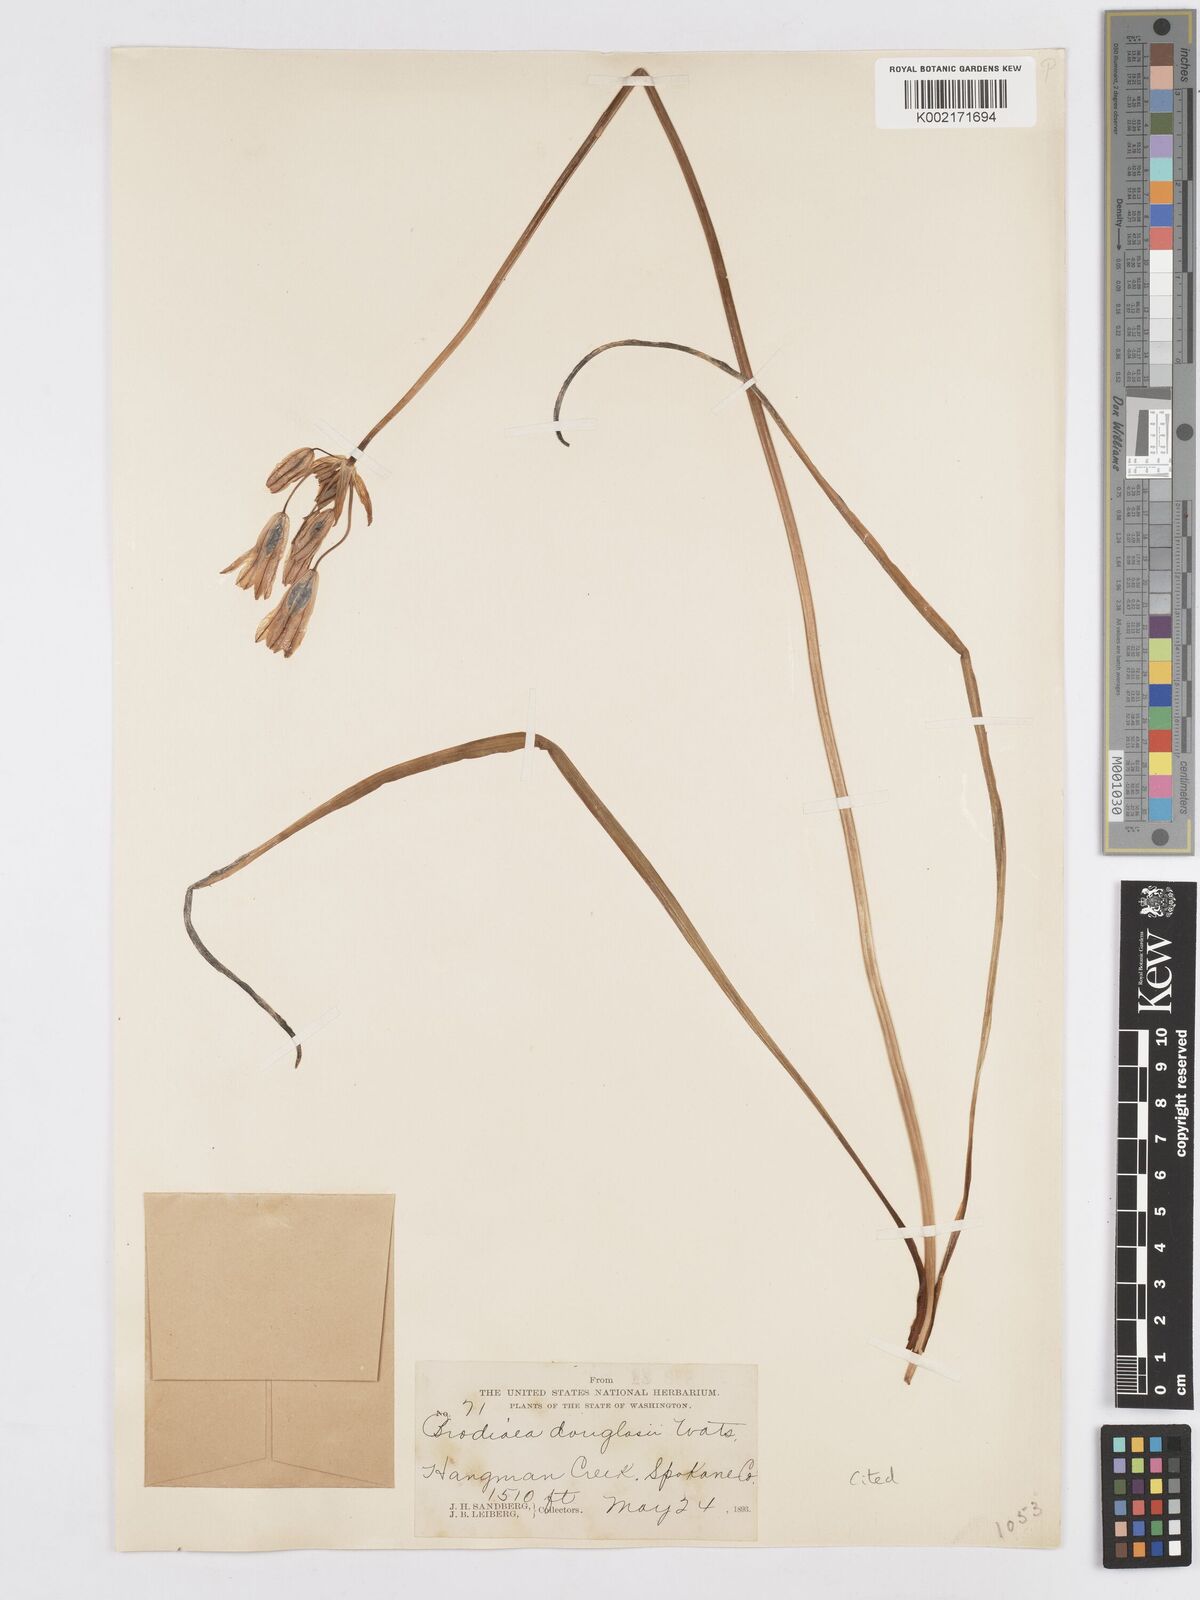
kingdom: Plantae
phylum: Tracheophyta
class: Liliopsida
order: Asparagales
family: Asparagaceae
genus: Triteleia
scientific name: Triteleia grandiflora
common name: Wild hyacinth
